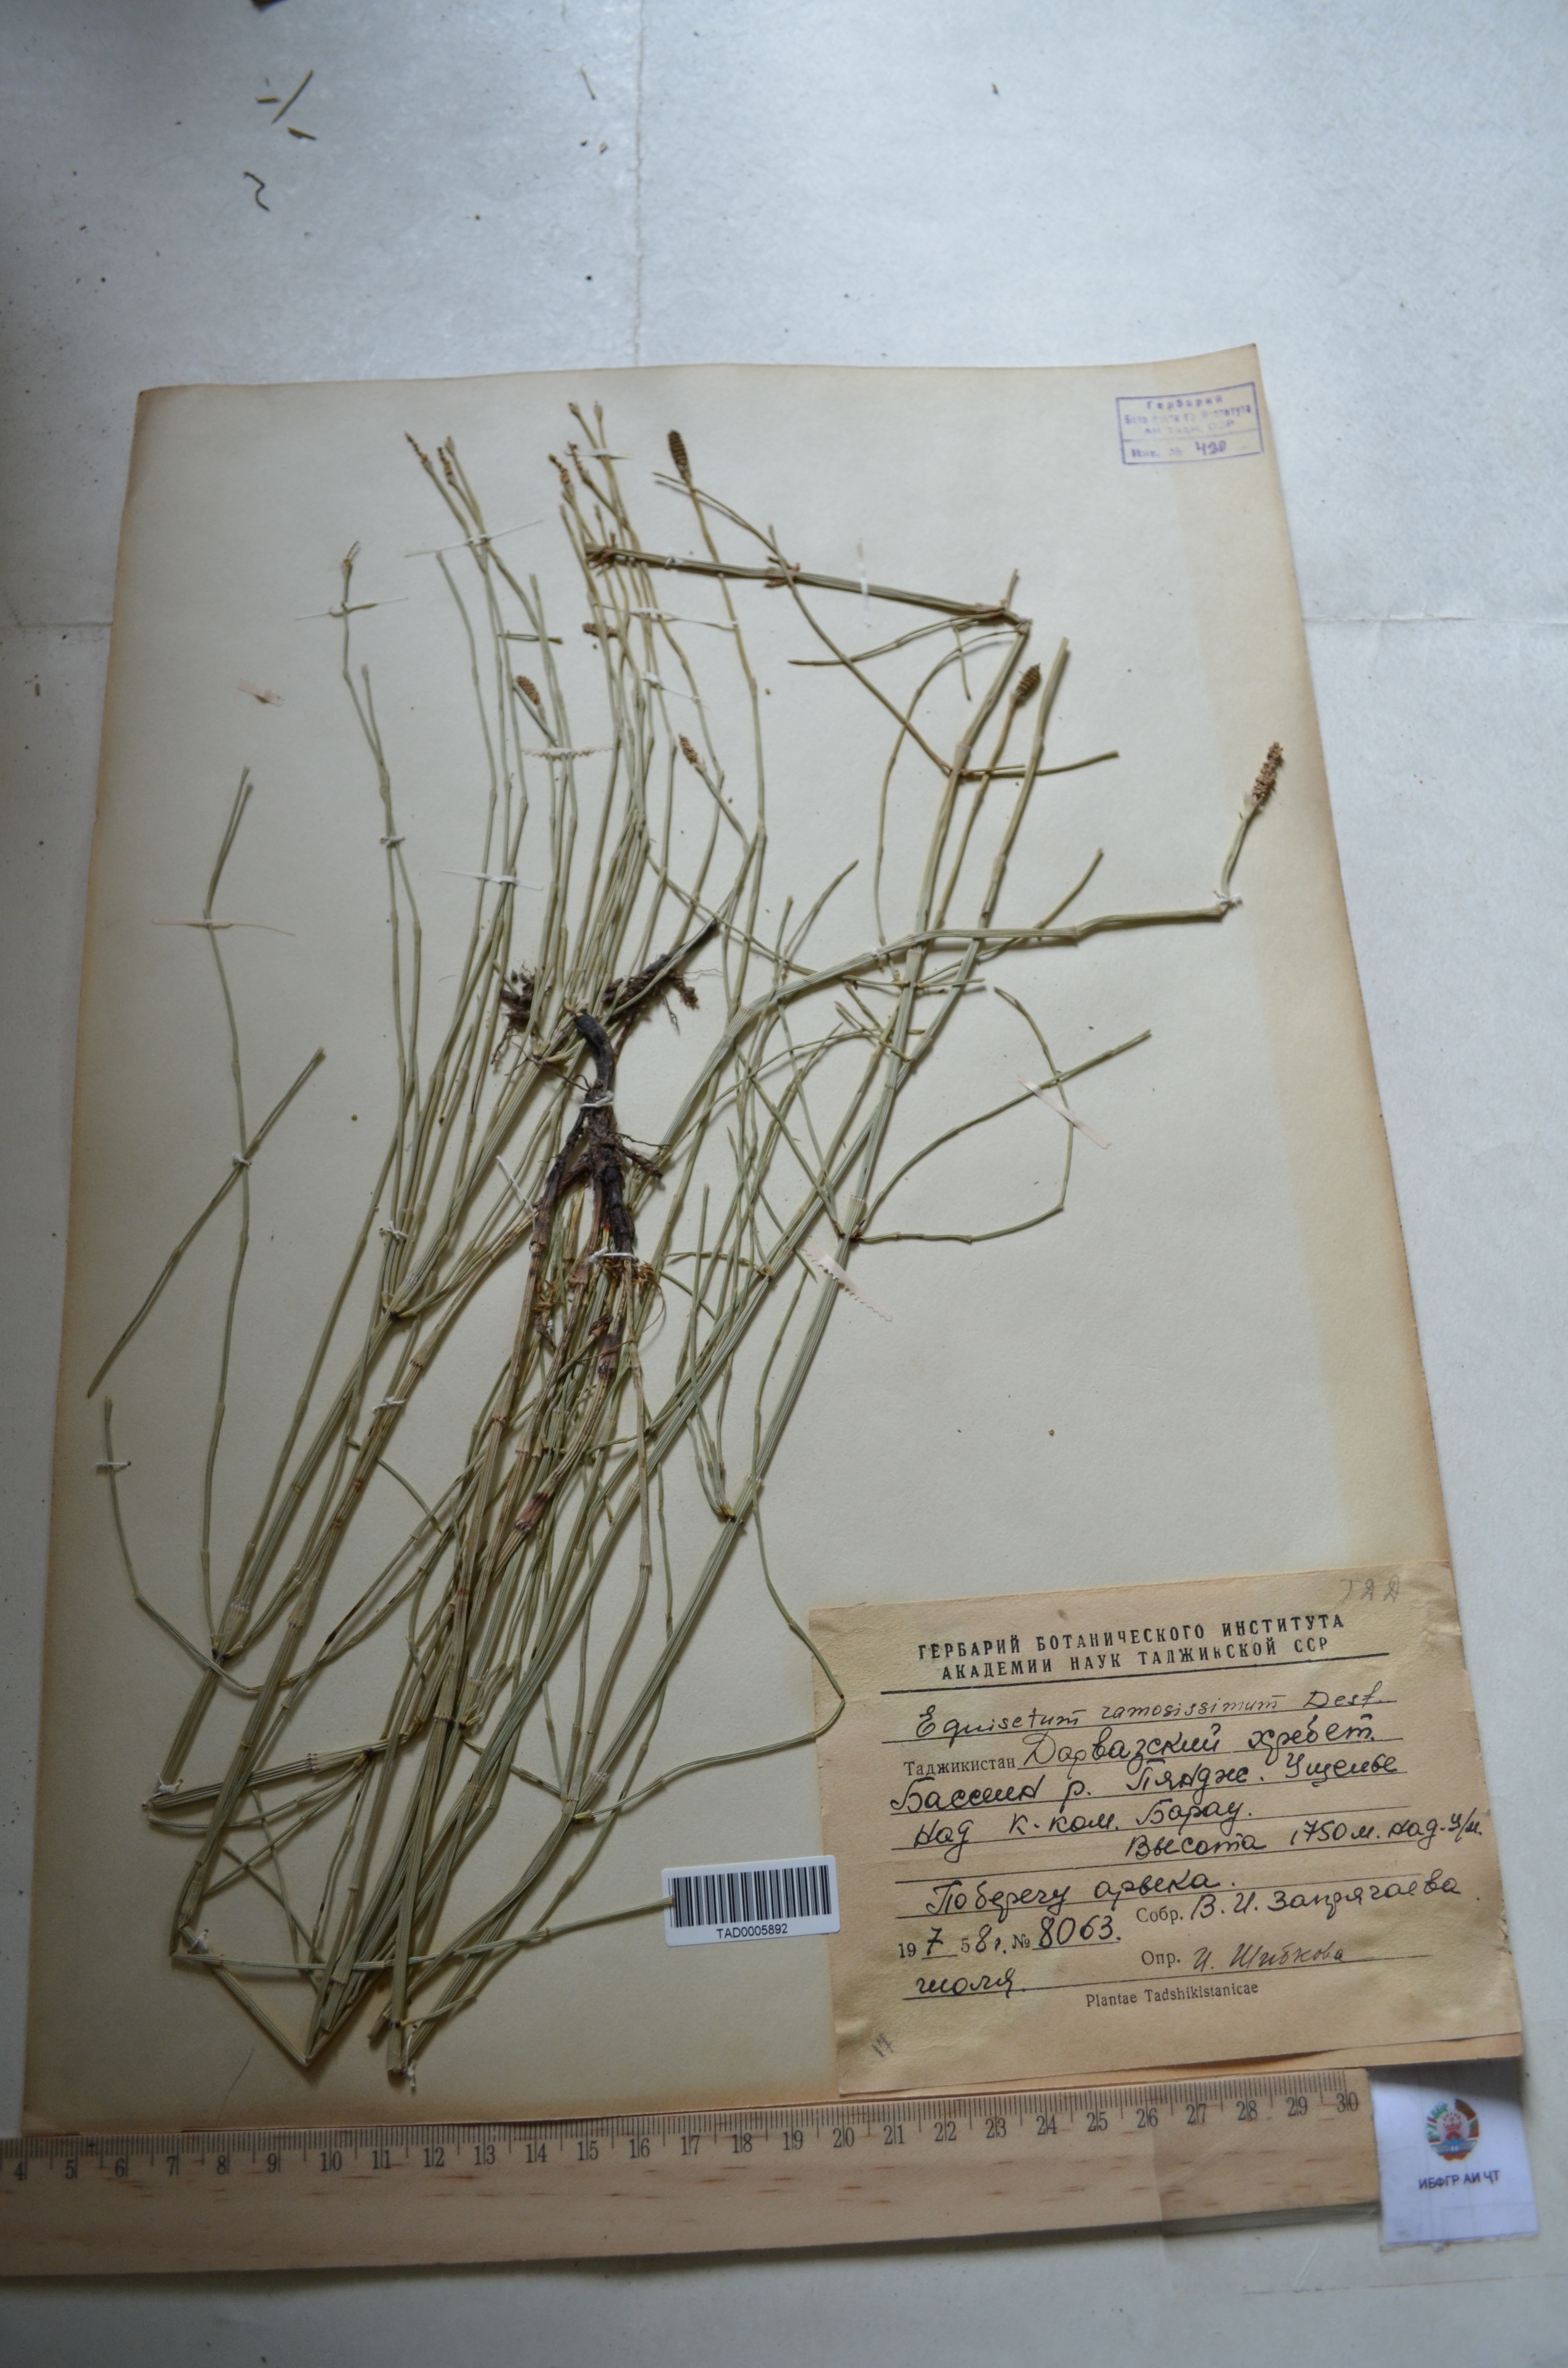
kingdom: Plantae
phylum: Tracheophyta
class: Polypodiopsida
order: Equisetales
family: Equisetaceae
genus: Equisetum
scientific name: Equisetum ramosissimum
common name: Branched horsetail
